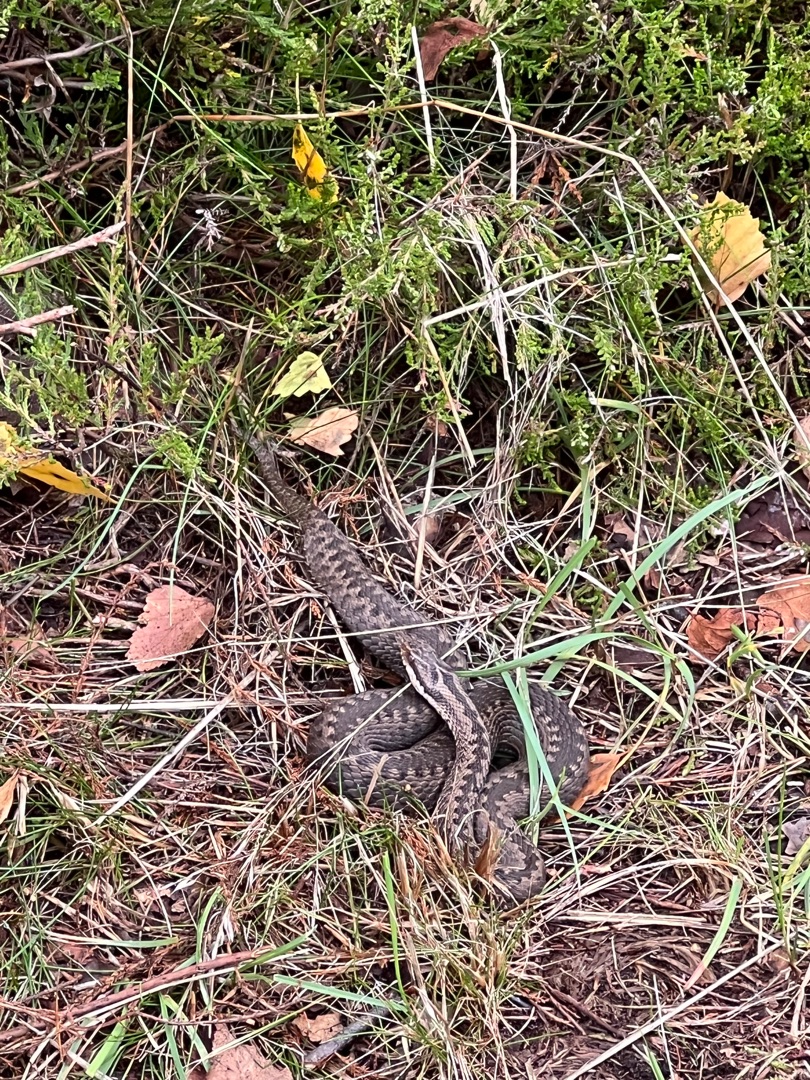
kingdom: Animalia
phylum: Chordata
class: Squamata
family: Viperidae
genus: Vipera
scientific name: Vipera berus
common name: Hugorm
